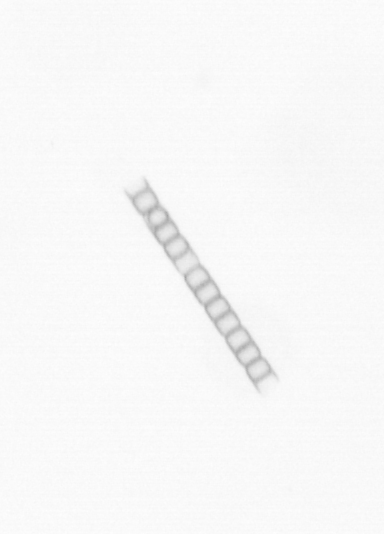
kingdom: Chromista
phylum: Ochrophyta
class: Bacillariophyceae
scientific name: Bacillariophyceae
